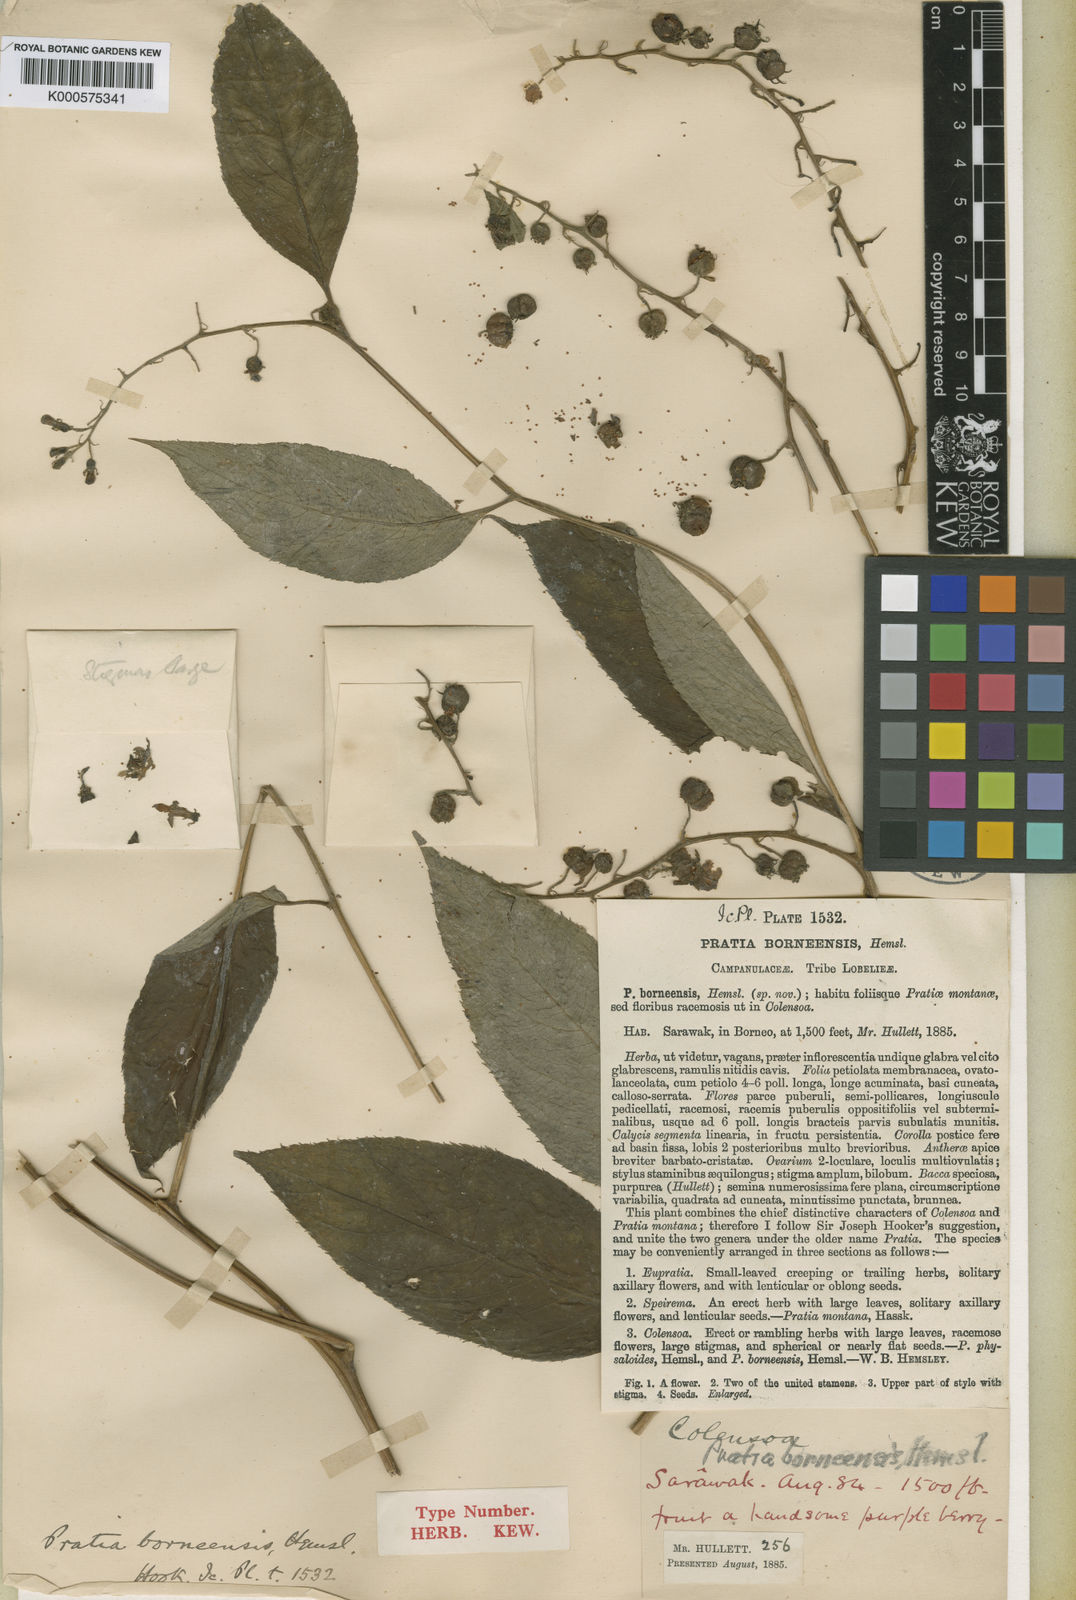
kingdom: Plantae
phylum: Tracheophyta
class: Magnoliopsida
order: Asterales
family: Campanulaceae
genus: Lobelia
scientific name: Lobelia borneensis
